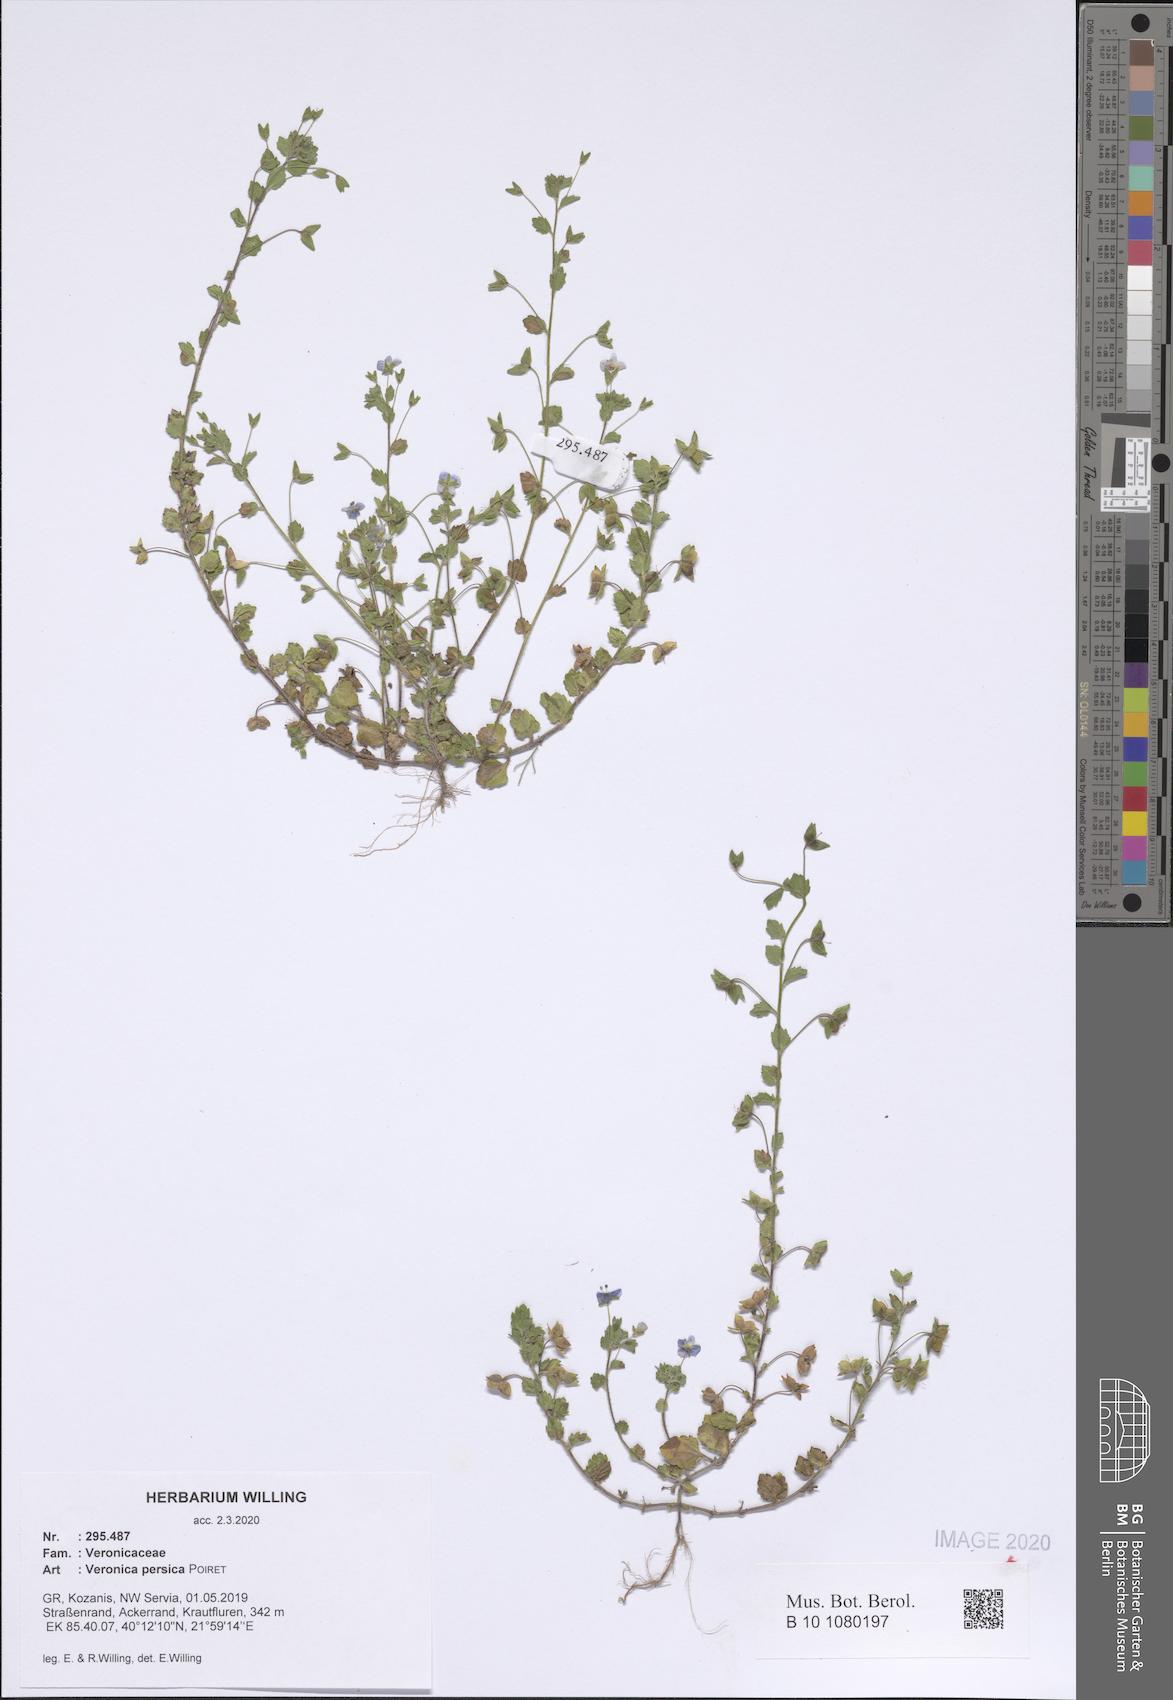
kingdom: Plantae
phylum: Tracheophyta
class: Magnoliopsida
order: Lamiales
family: Plantaginaceae
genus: Veronica
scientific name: Veronica persica
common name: Common field-speedwell
